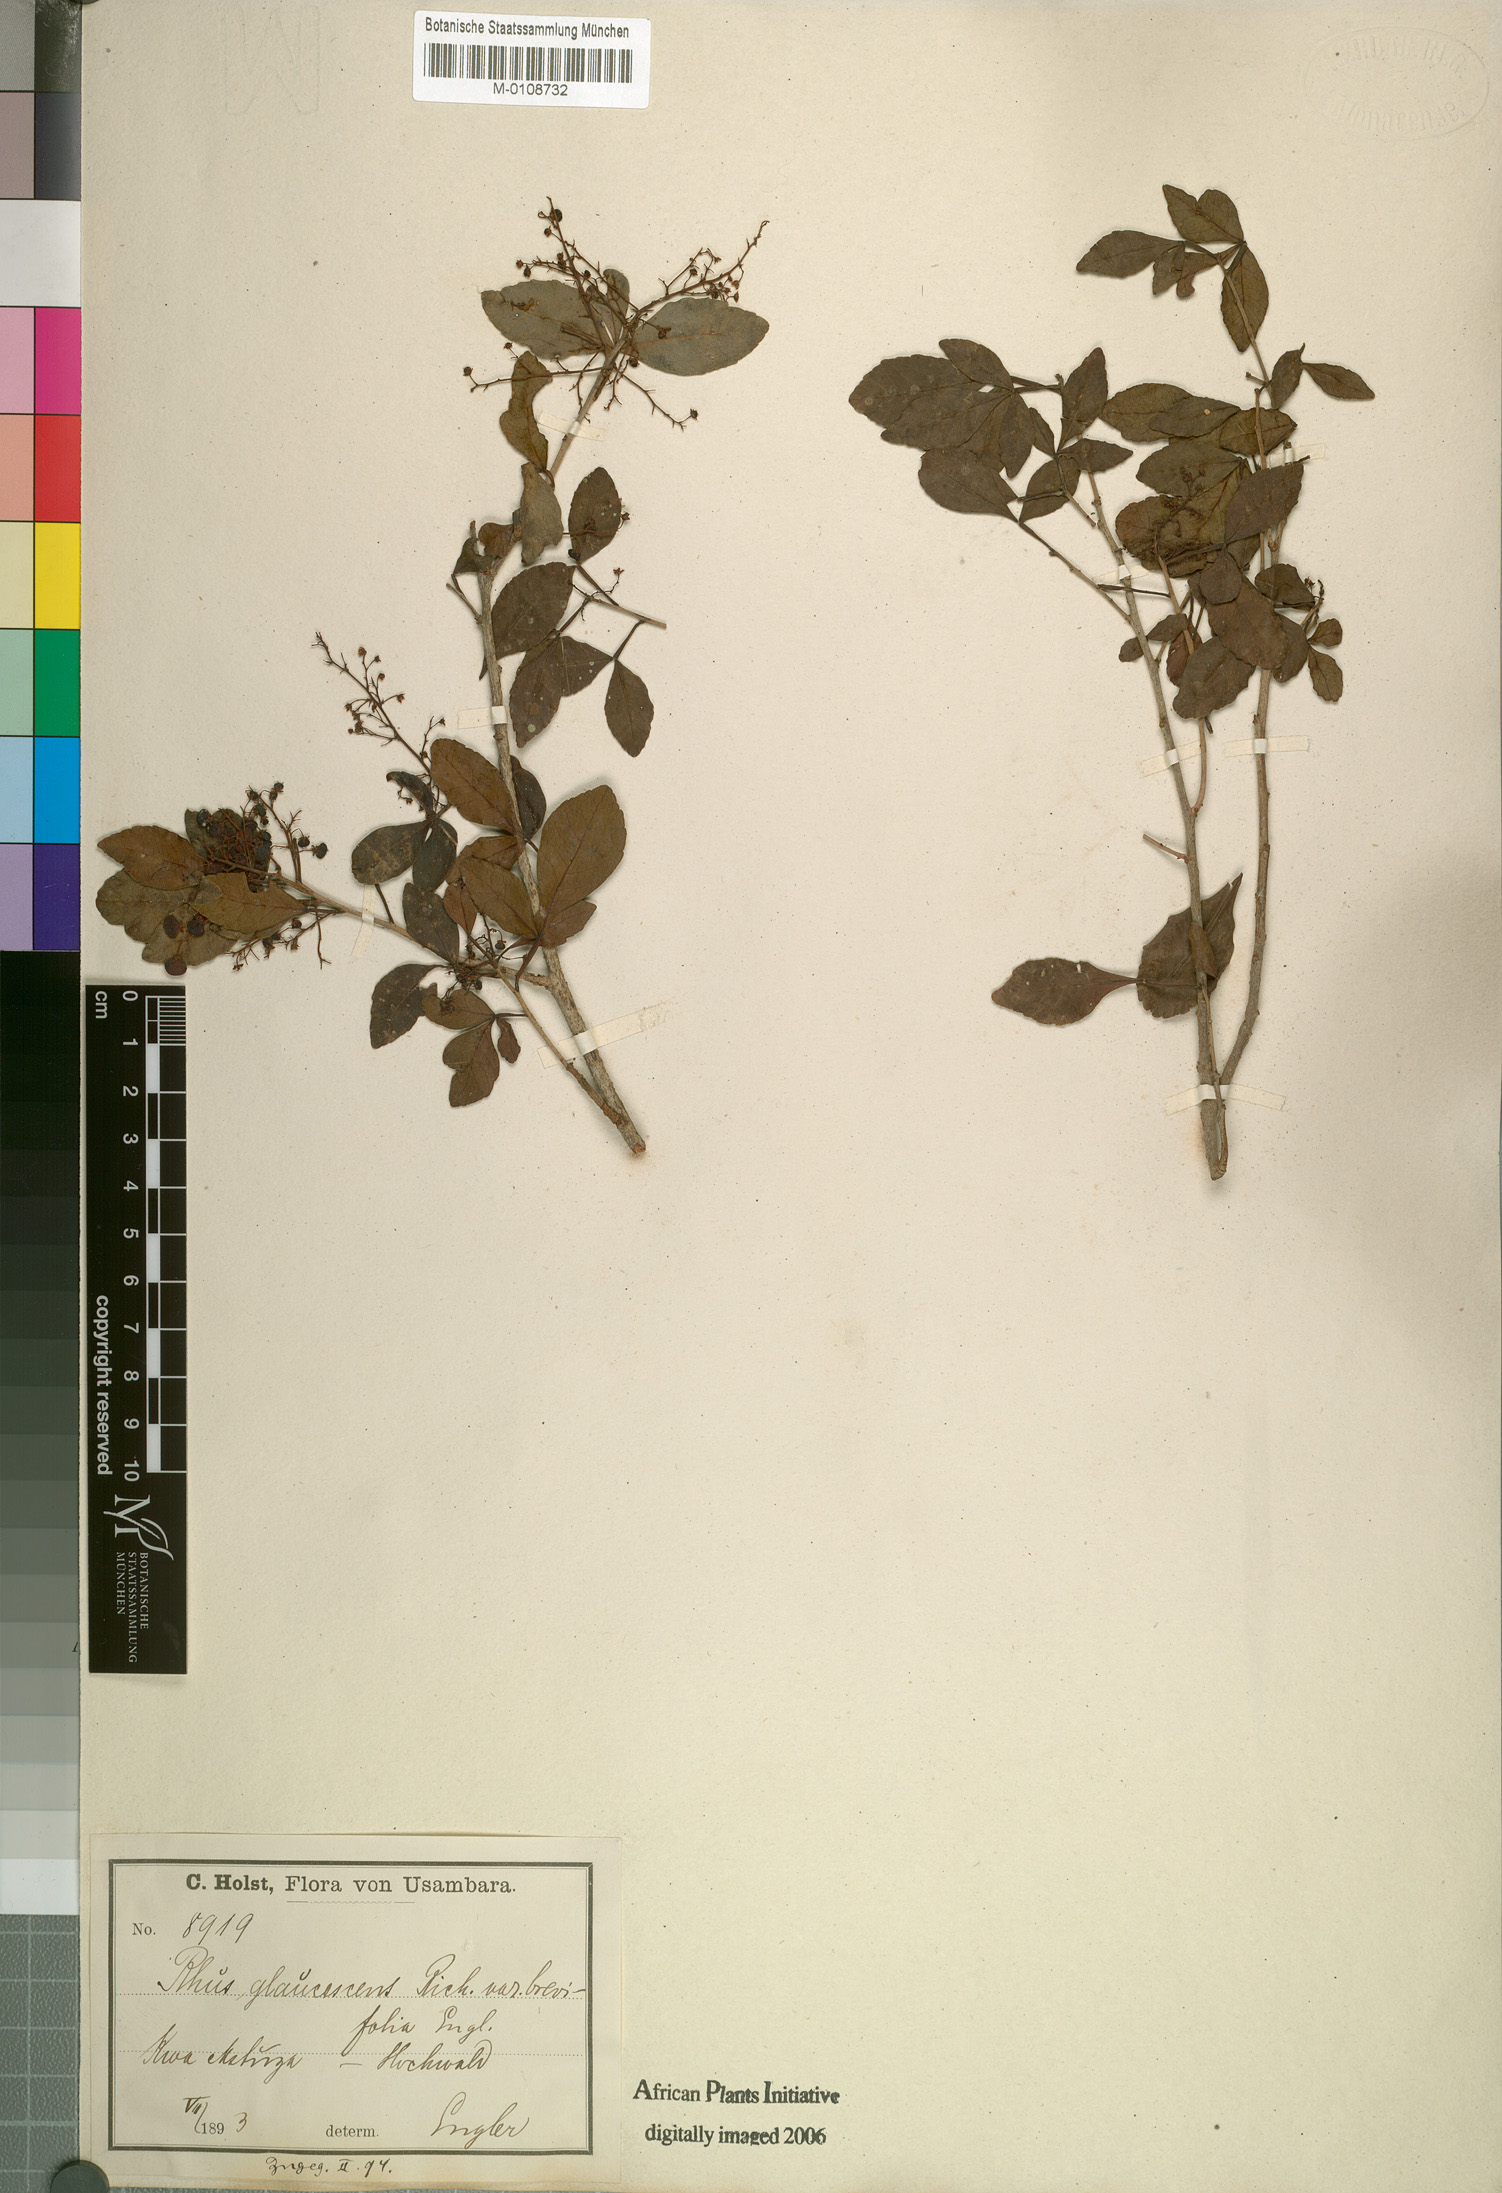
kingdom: Plantae
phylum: Tracheophyta
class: Magnoliopsida
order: Sapindales
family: Anacardiaceae
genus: Searsia
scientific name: Searsia natalensis
